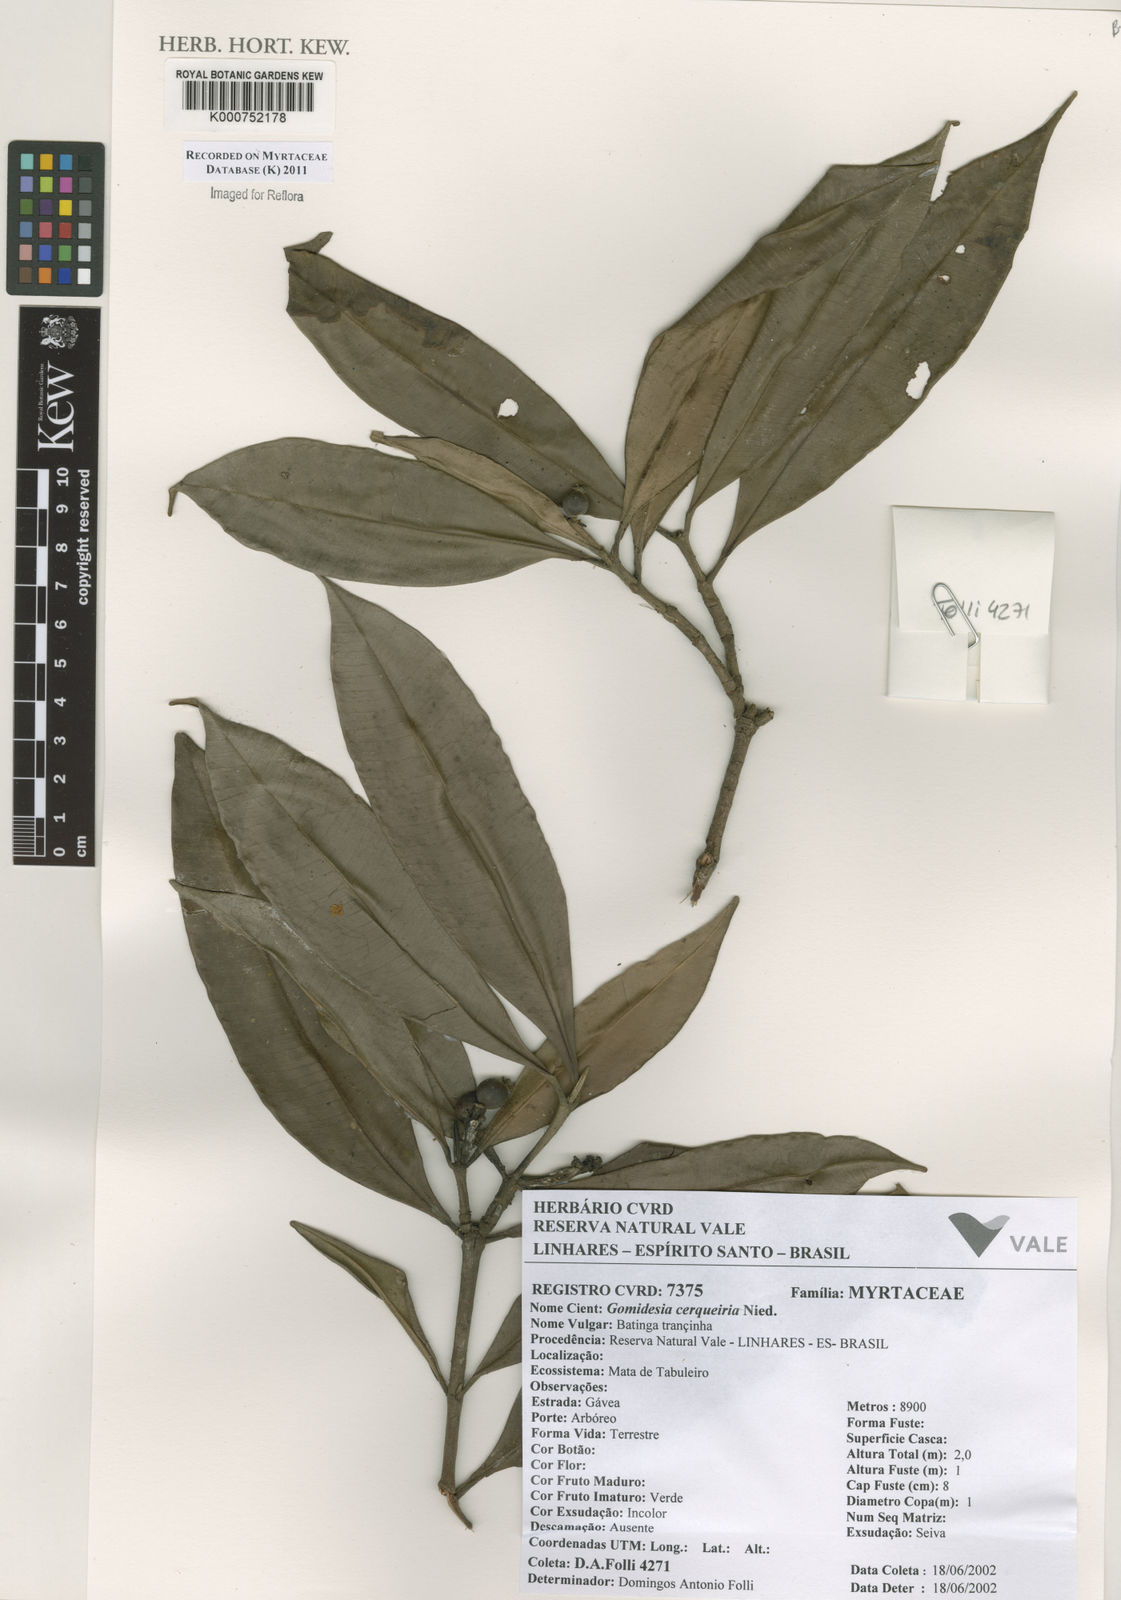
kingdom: Plantae
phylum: Tracheophyta
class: Magnoliopsida
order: Myrtales
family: Myrtaceae
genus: Myrcia
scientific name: Myrcia cerqueiria
